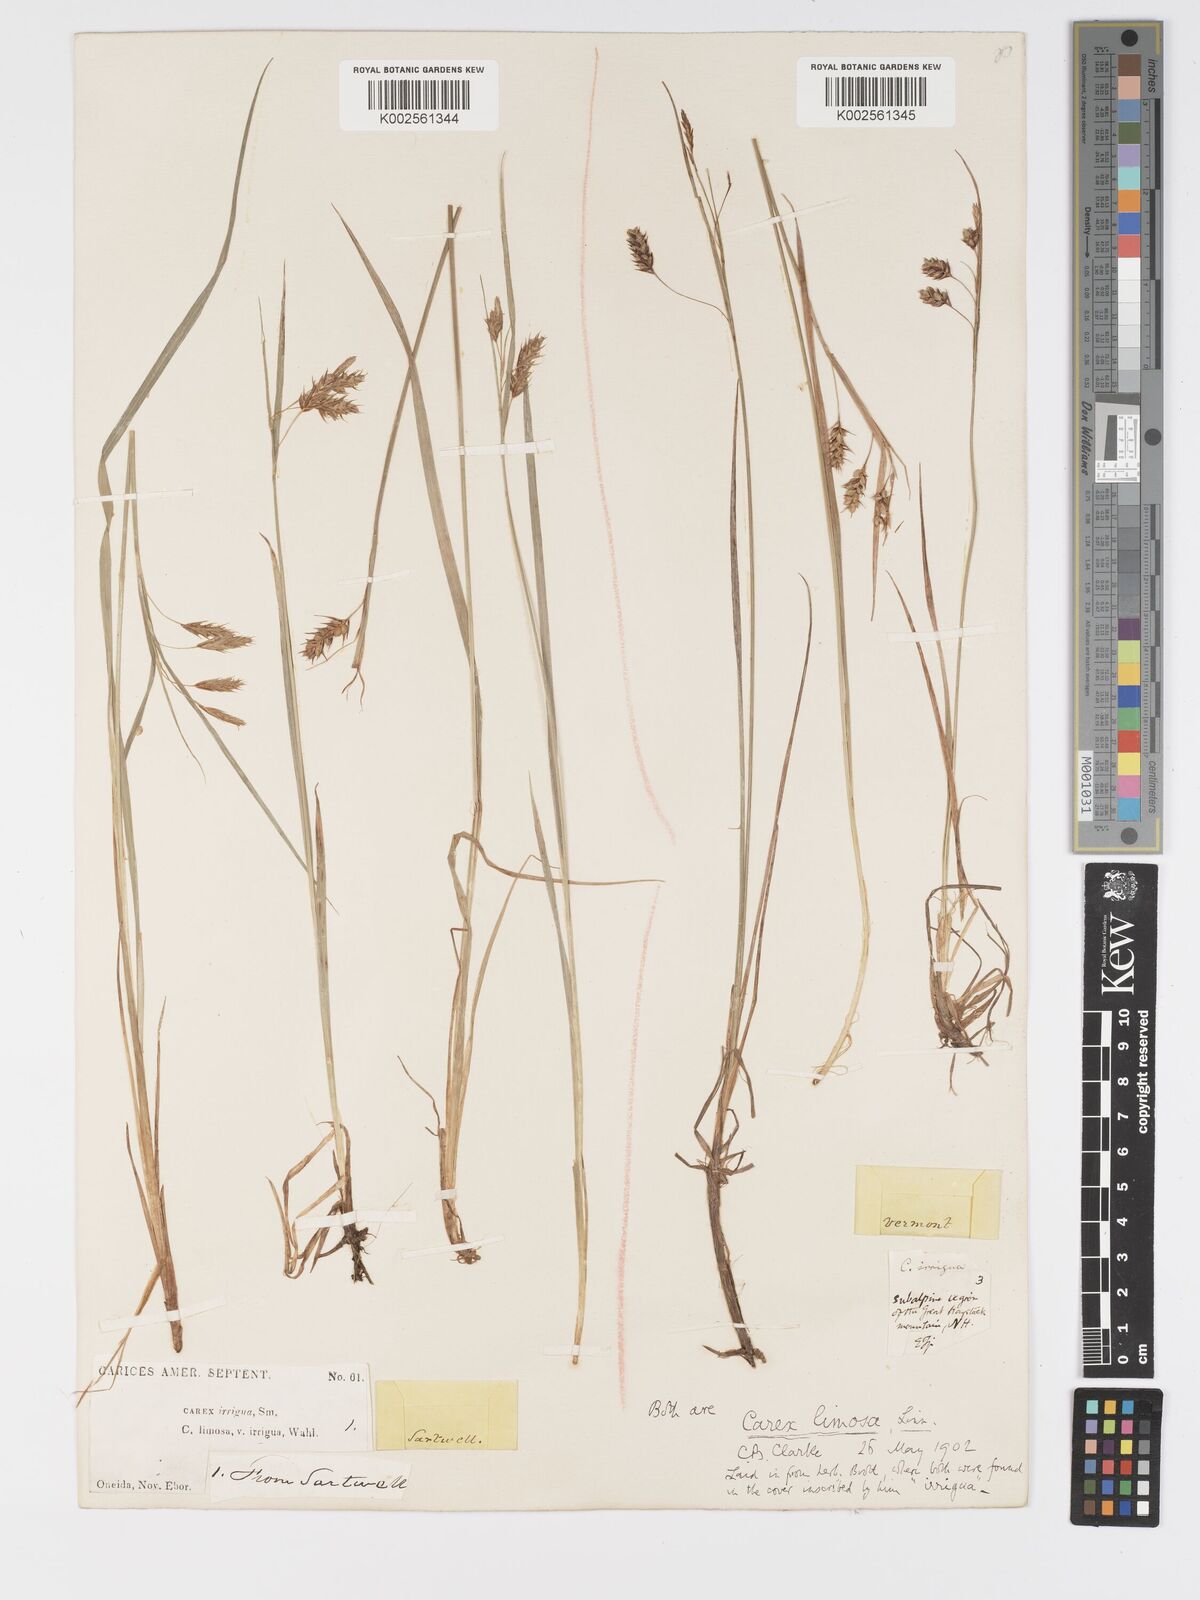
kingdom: Plantae
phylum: Tracheophyta
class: Liliopsida
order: Poales
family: Cyperaceae
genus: Carex
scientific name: Carex magellanica
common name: Bog sedge
